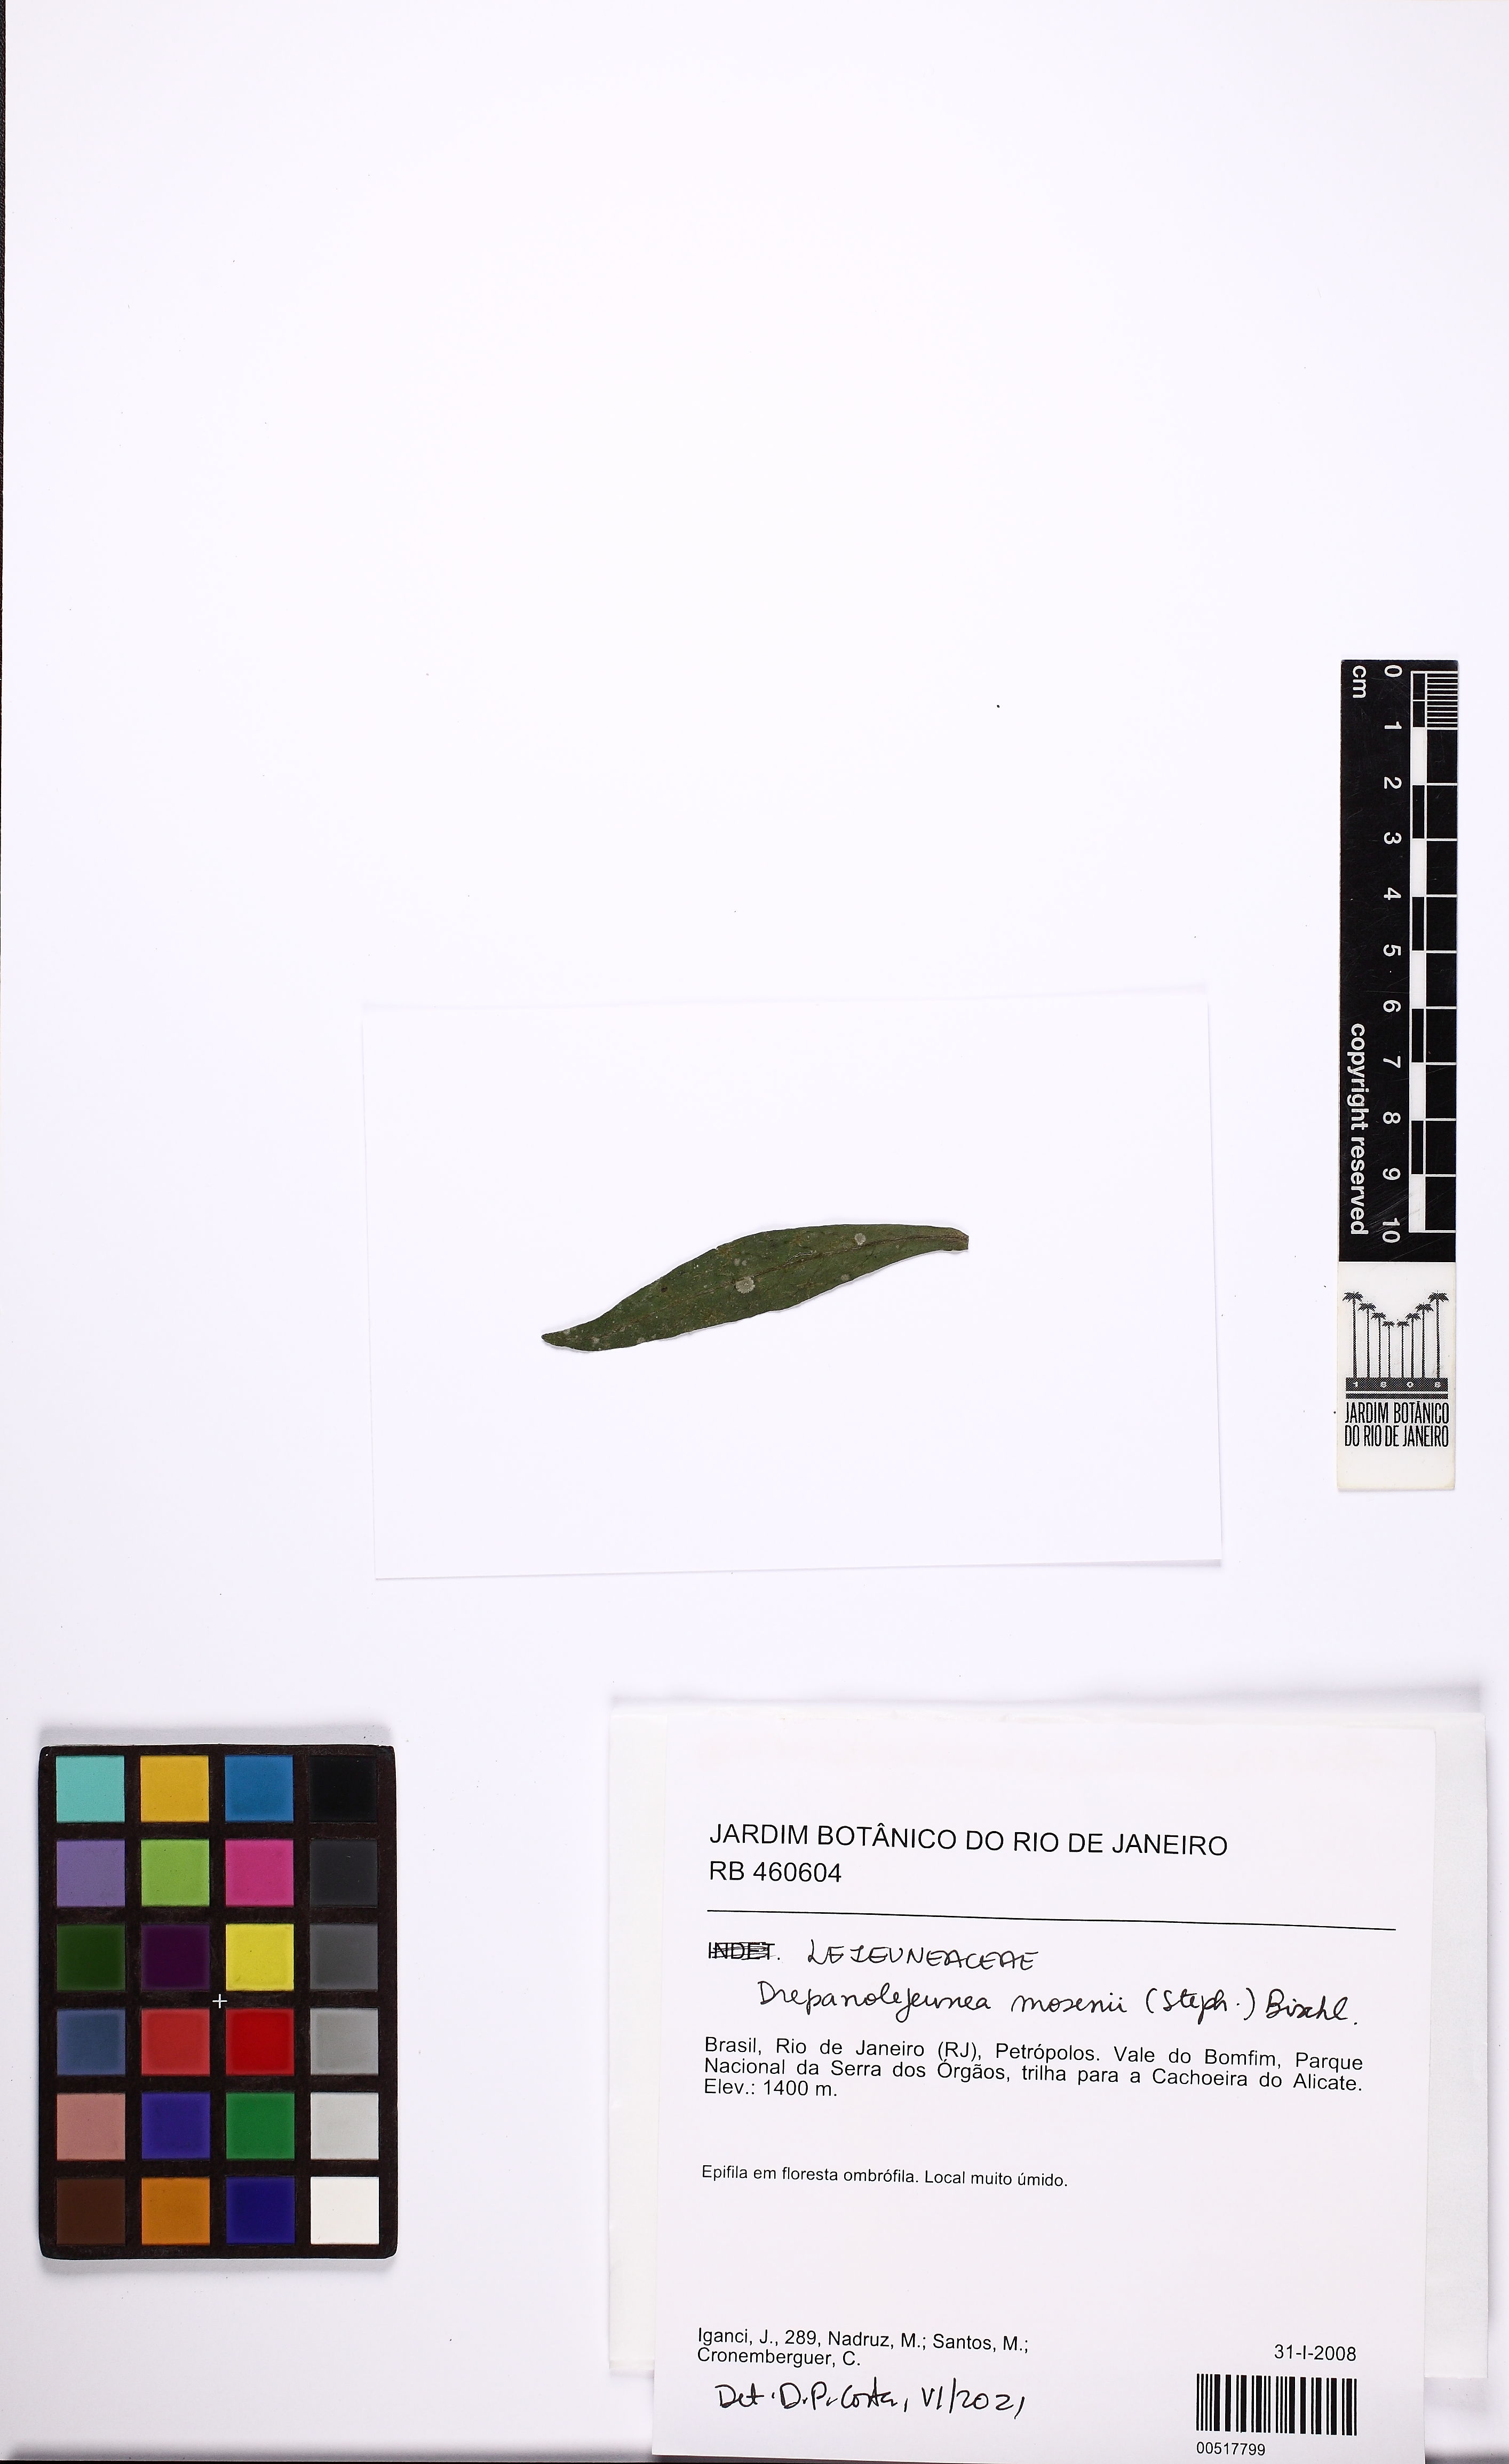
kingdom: Plantae
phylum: Marchantiophyta
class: Jungermanniopsida
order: Porellales
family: Lejeuneaceae
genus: Drepanolejeunea
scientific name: Drepanolejeunea mosenii
